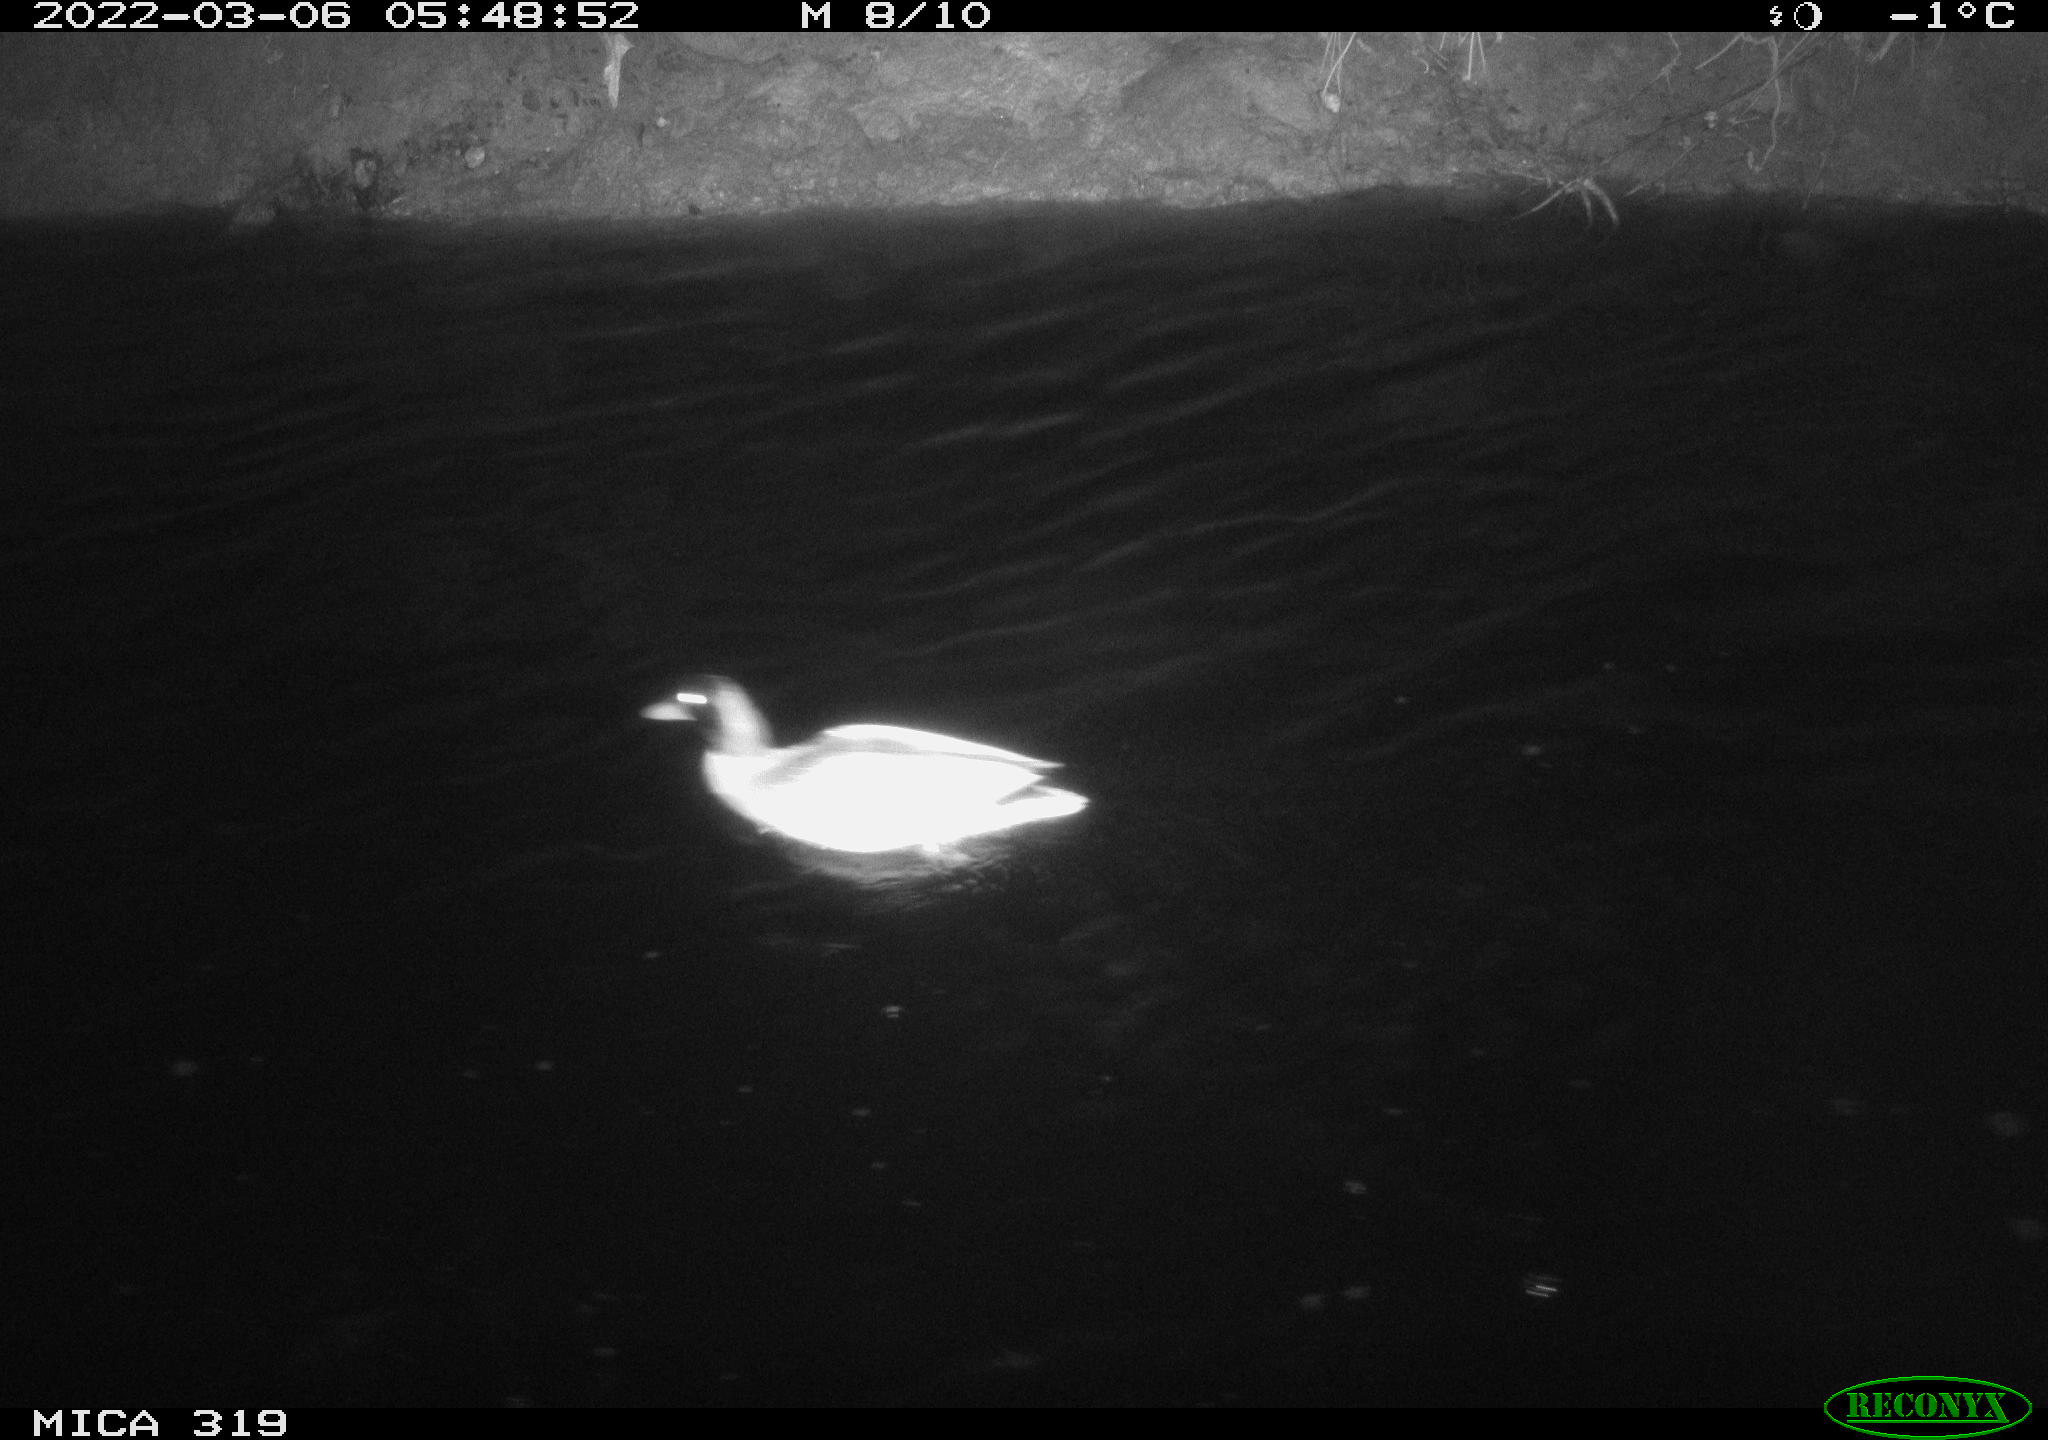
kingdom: Animalia
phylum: Chordata
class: Aves
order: Anseriformes
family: Anatidae
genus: Anas
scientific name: Anas platyrhynchos
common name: Mallard
